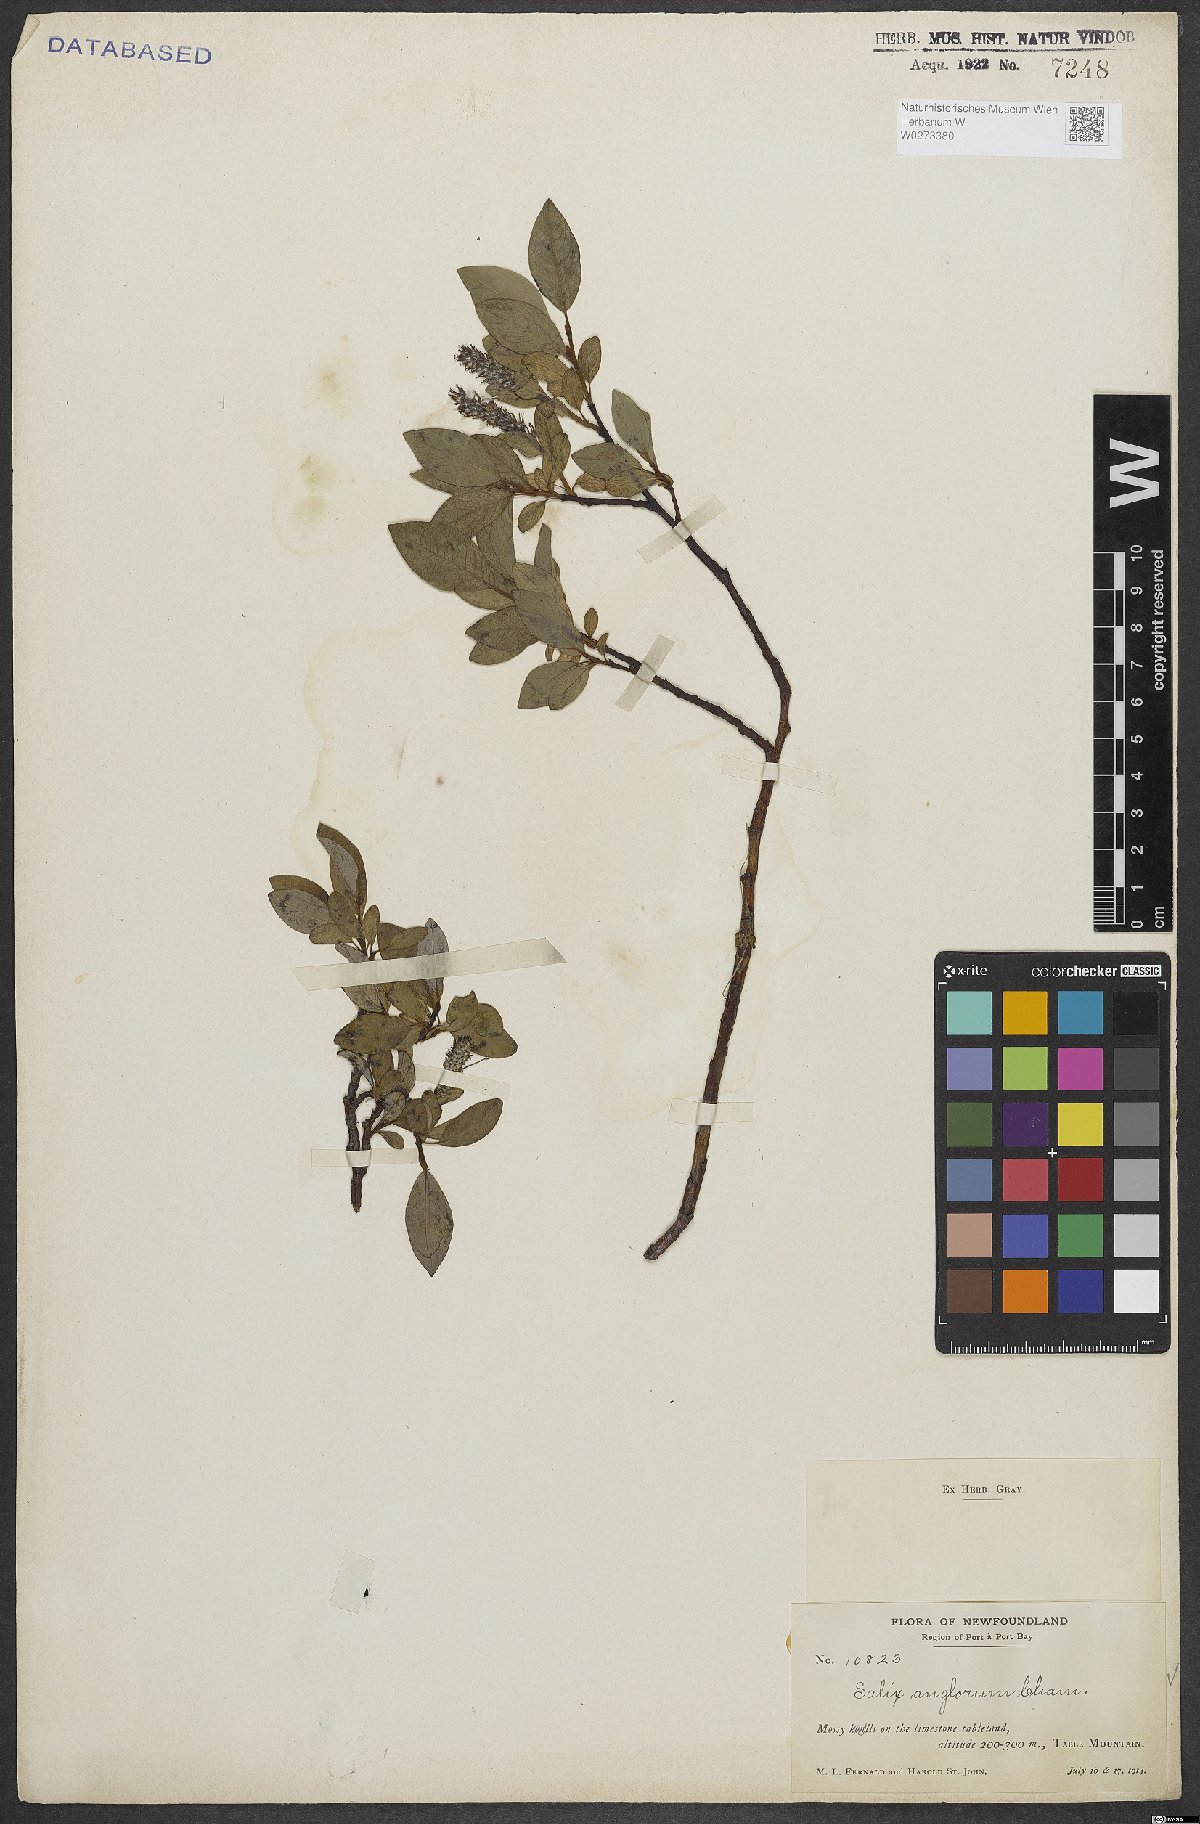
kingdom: Plantae
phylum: Tracheophyta
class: Magnoliopsida
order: Malpighiales
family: Salicaceae
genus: Salix
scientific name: Salix arctica
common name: Arctic willow
